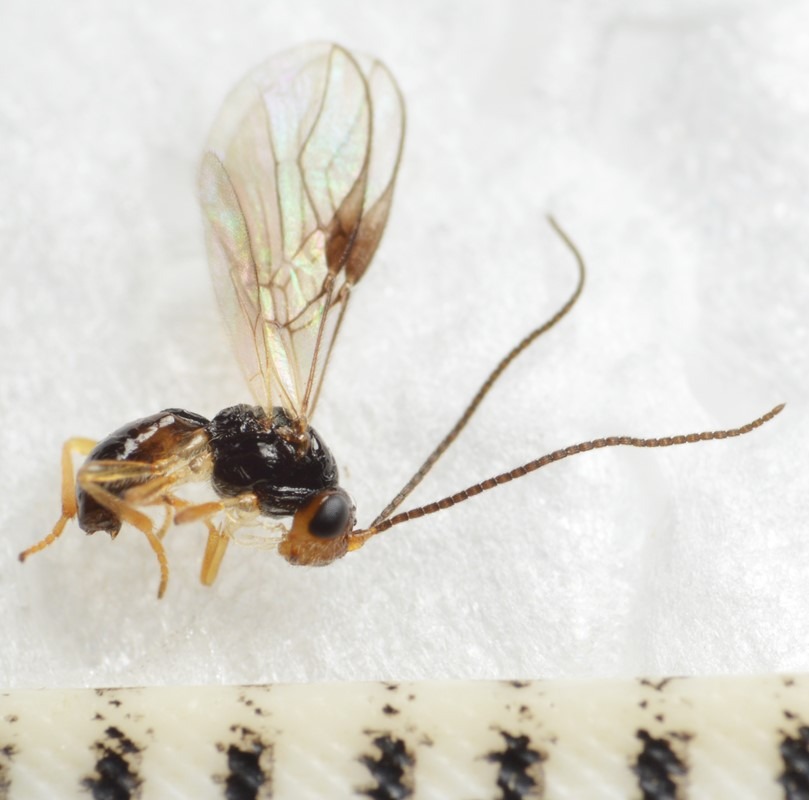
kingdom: Animalia
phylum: Arthropoda
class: Insecta
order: Hymenoptera
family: Braconidae
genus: Utetes
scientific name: Utetes rotundiventris
